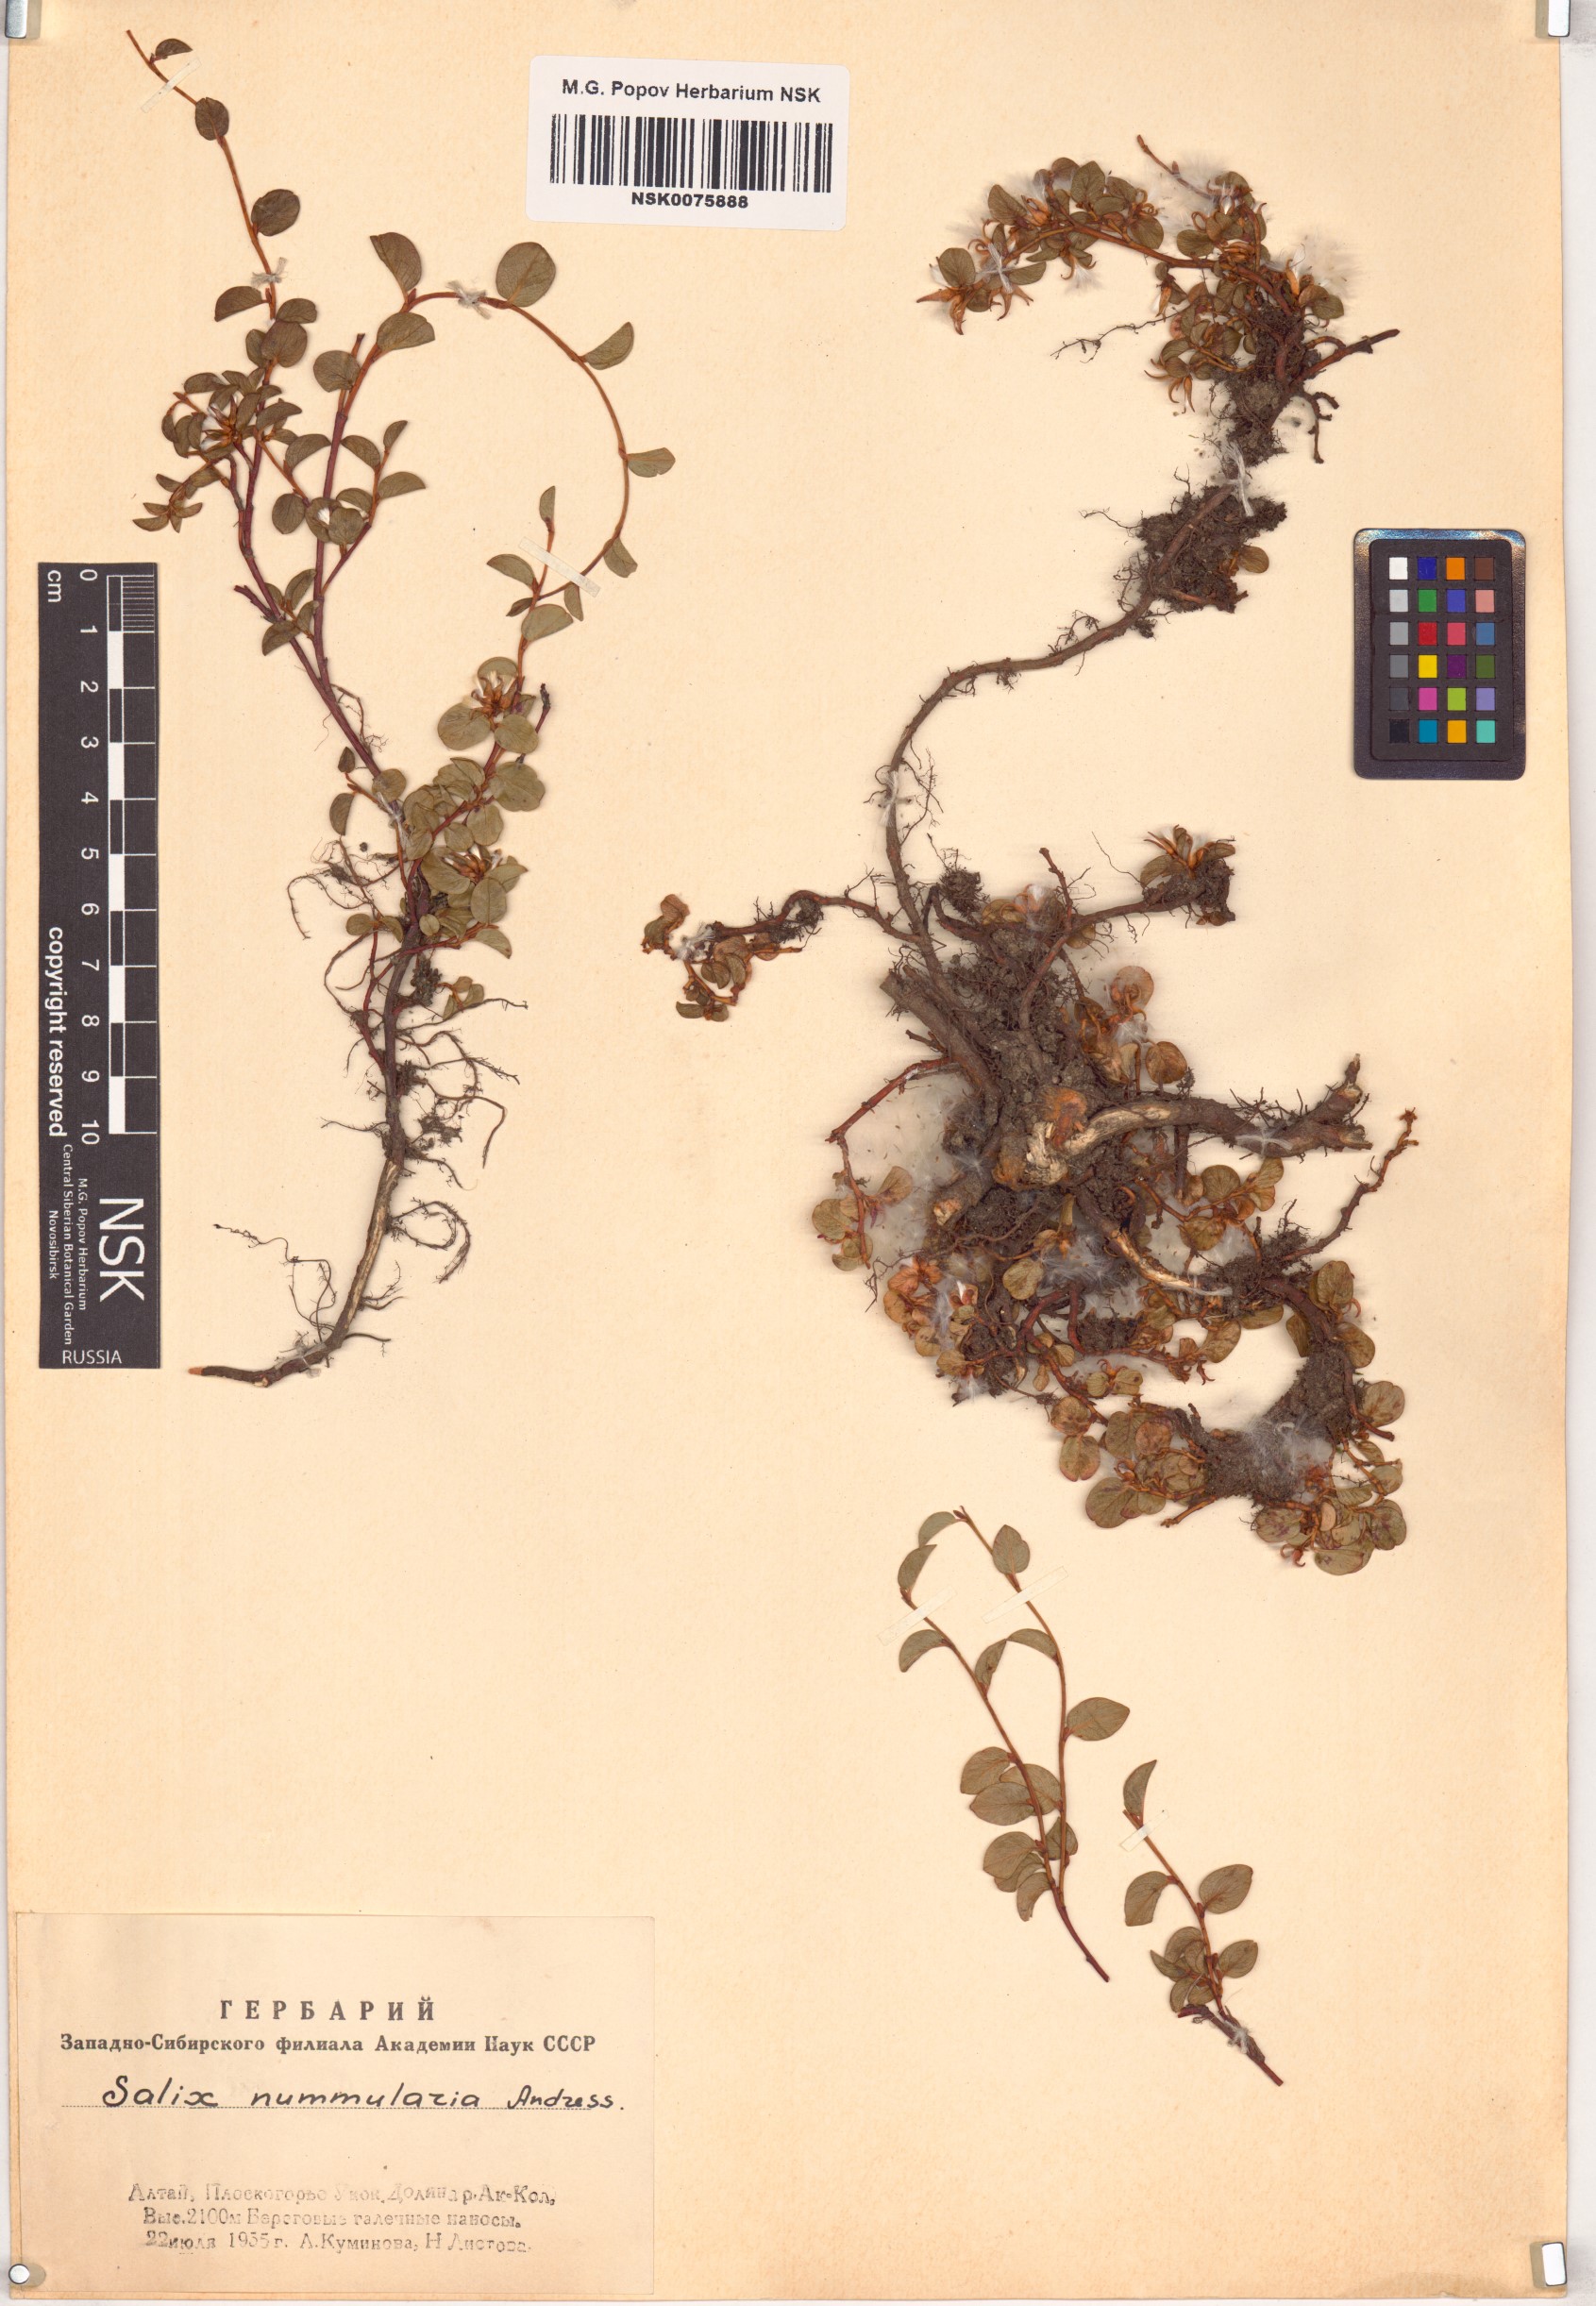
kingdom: Plantae
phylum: Tracheophyta
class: Magnoliopsida
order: Malpighiales
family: Salicaceae
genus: Salix
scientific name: Salix nummularia
